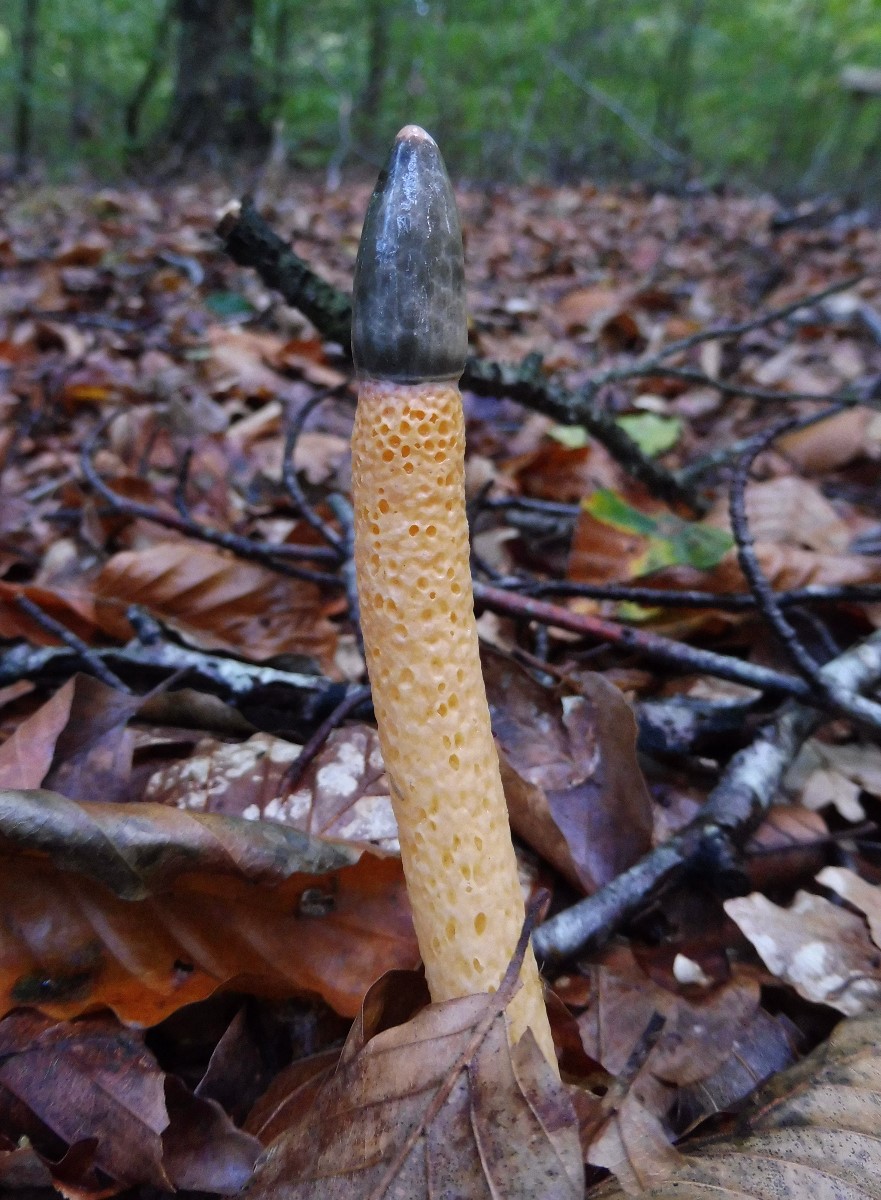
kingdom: Fungi
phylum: Basidiomycota
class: Agaricomycetes
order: Phallales
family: Phallaceae
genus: Mutinus
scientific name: Mutinus caninus
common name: hunde-stinksvamp
